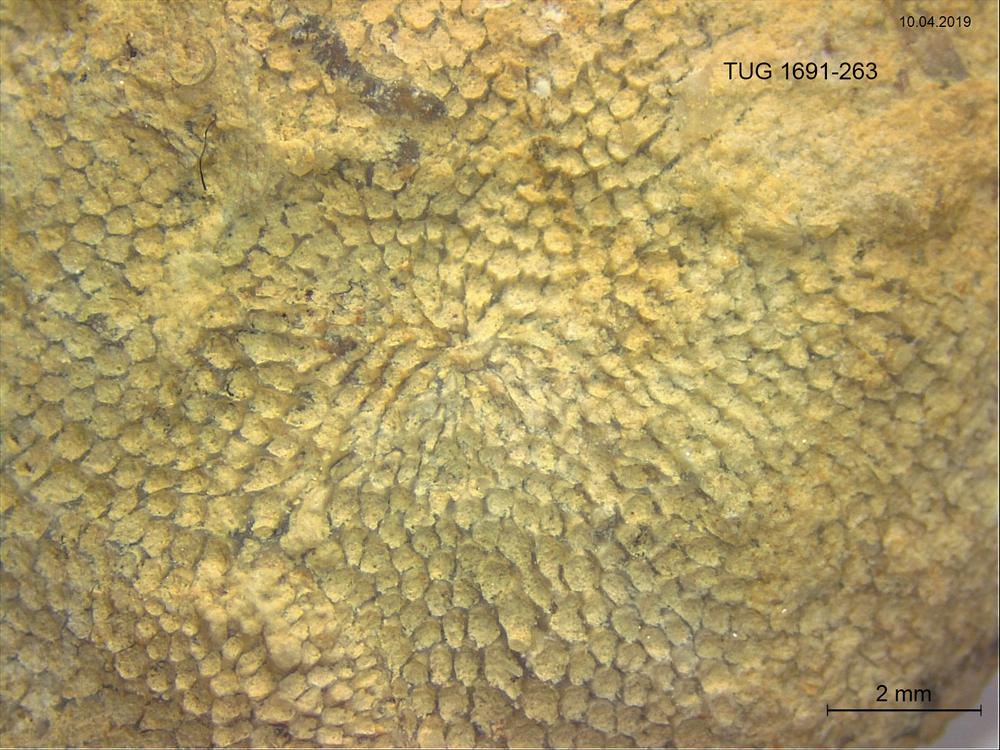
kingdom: Animalia
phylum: Bryozoa
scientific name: Bryozoa
